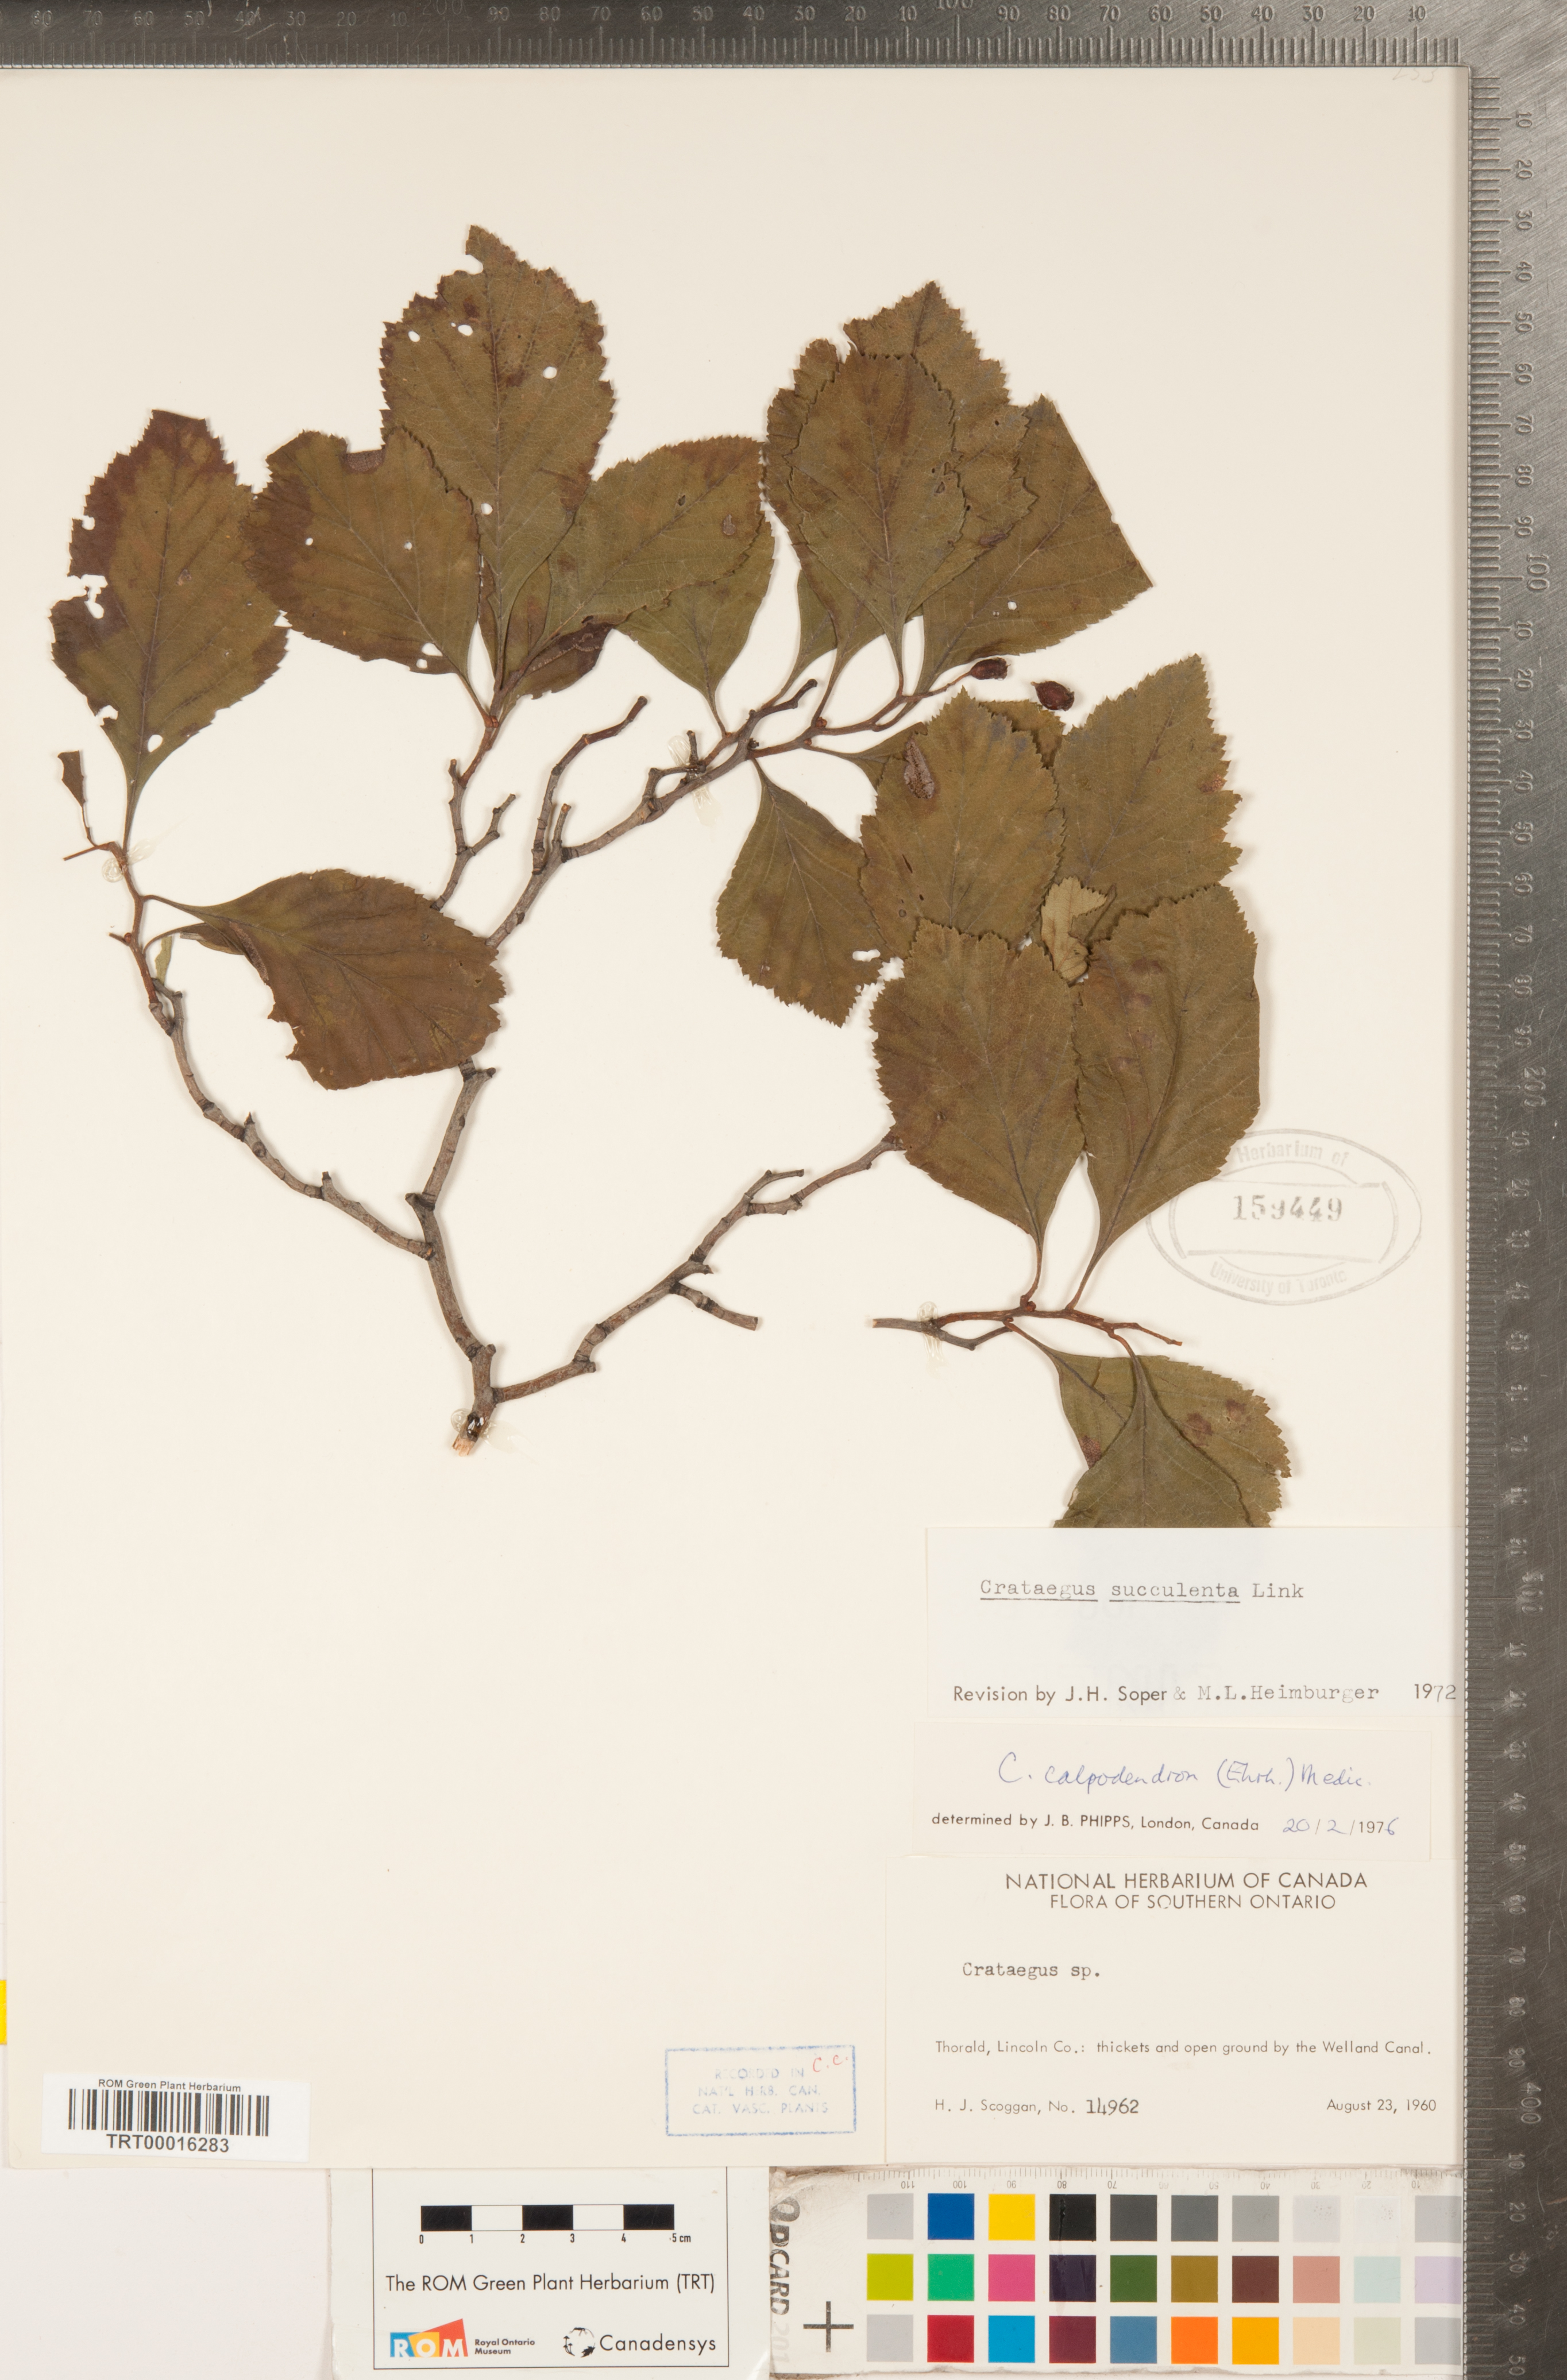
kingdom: Plantae
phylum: Tracheophyta
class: Magnoliopsida
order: Rosales
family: Rosaceae
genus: Crataegus
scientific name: Crataegus calpodendron
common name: Pear hawthorn
